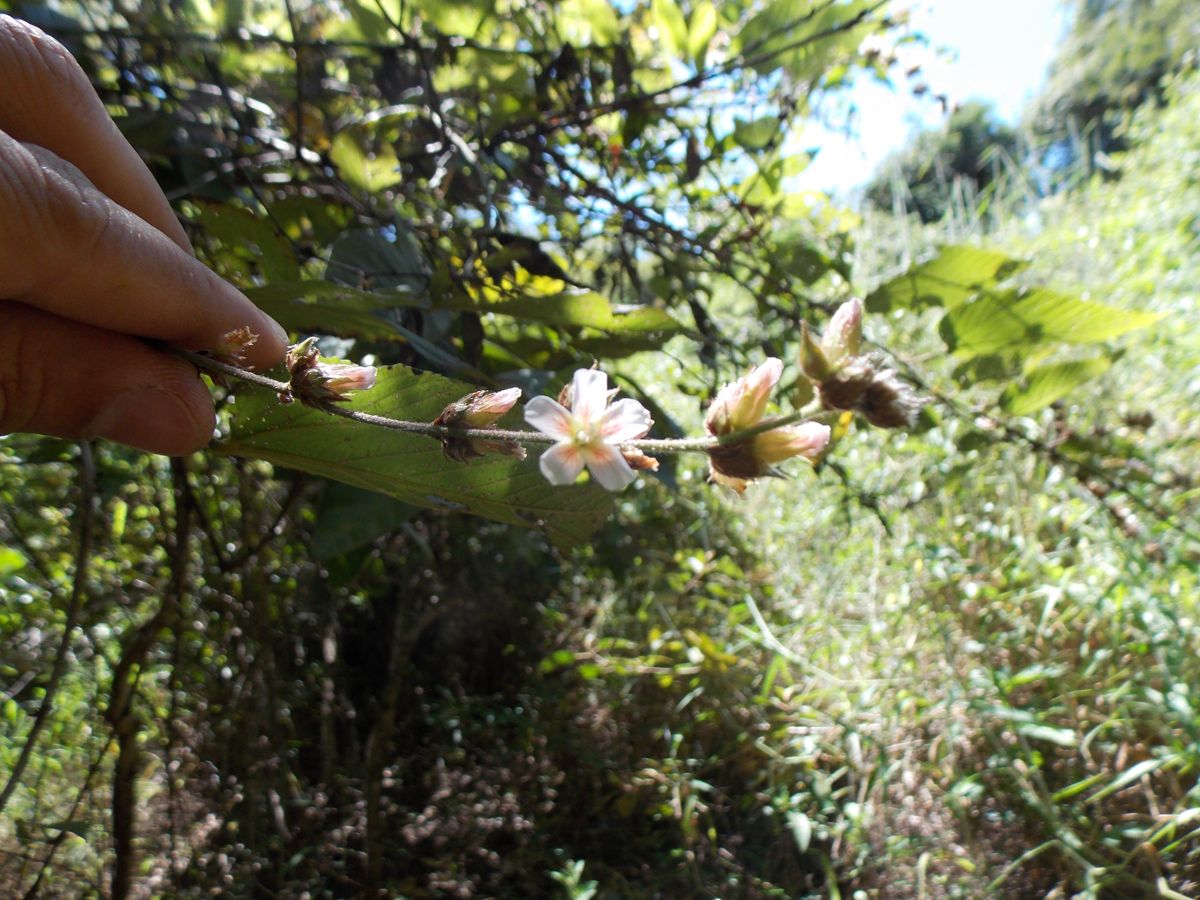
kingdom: Plantae
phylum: Tracheophyta
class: Magnoliopsida
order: Malvales
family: Malvaceae
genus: Melochia
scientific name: Melochia nodiflora
